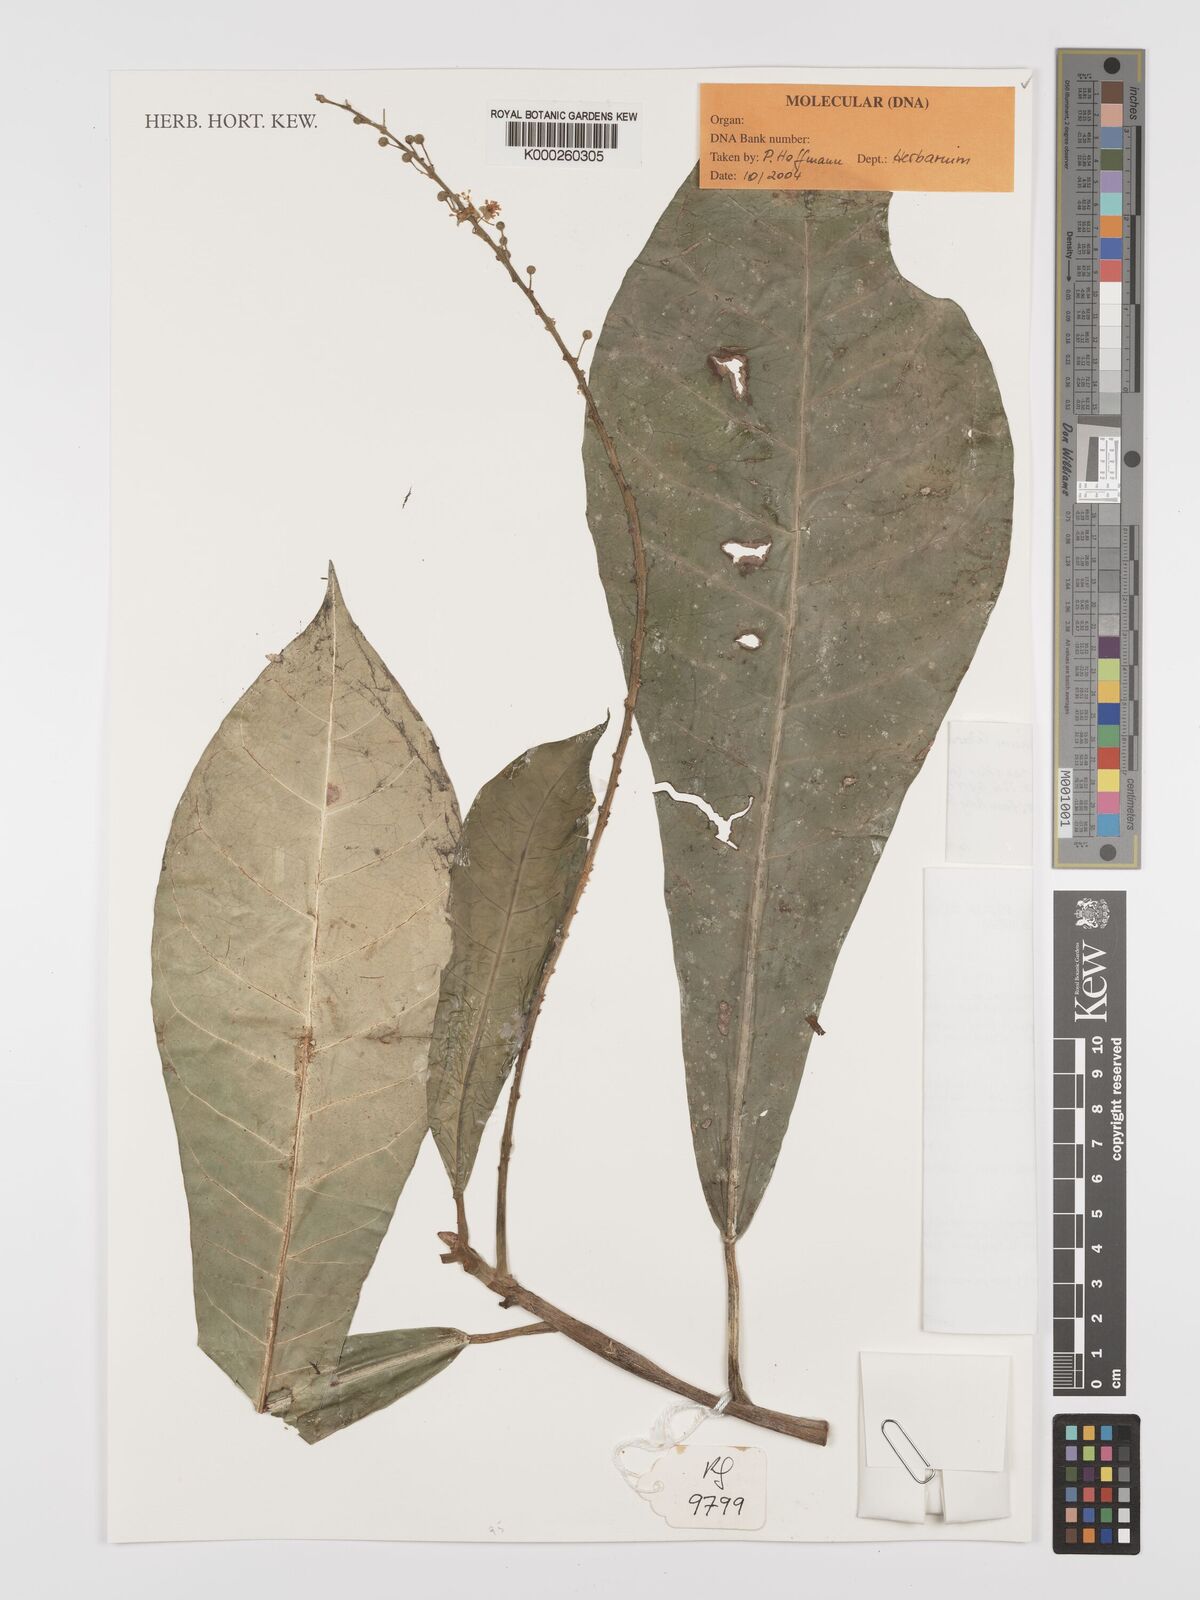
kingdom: Plantae
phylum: Tracheophyta
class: Magnoliopsida
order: Malpighiales
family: Euphorbiaceae
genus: Codiaeum
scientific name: Codiaeum stellingianum
